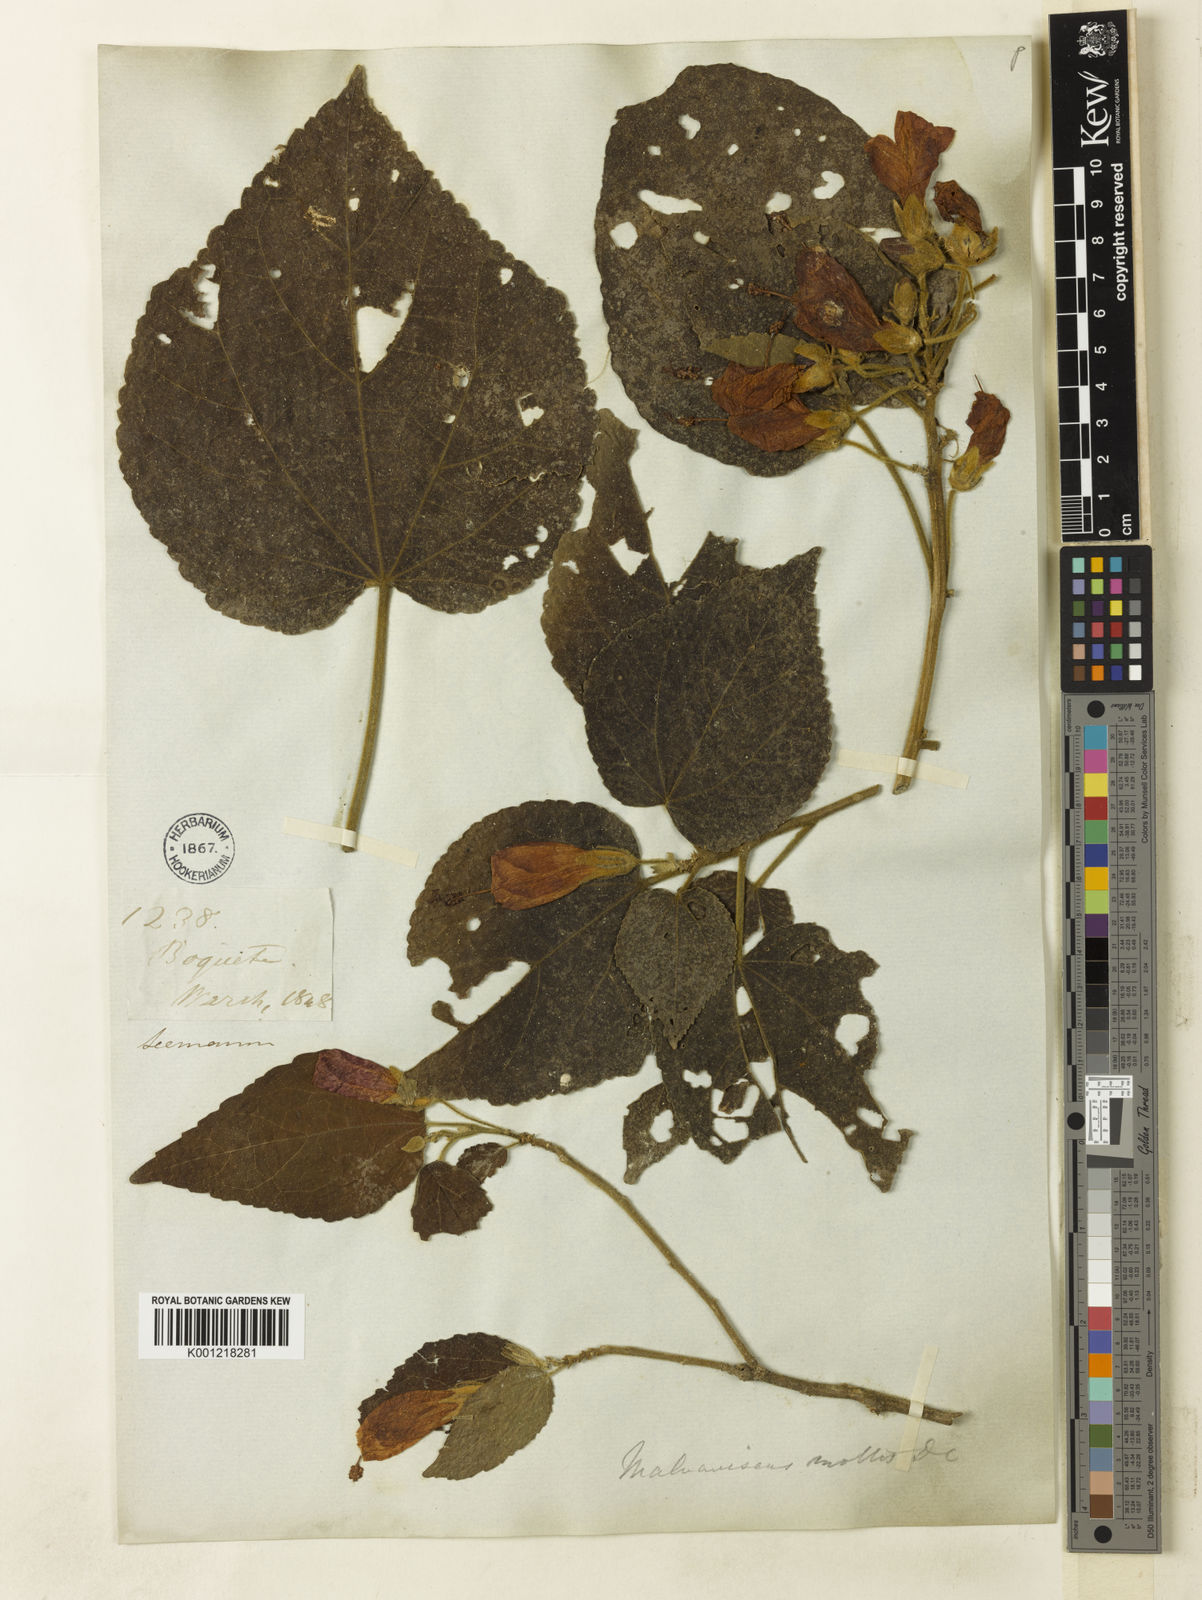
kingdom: Plantae
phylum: Tracheophyta
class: Magnoliopsida
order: Malvales
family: Malvaceae
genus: Malvaviscus
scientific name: Malvaviscus arboreus
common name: Wax mallow
